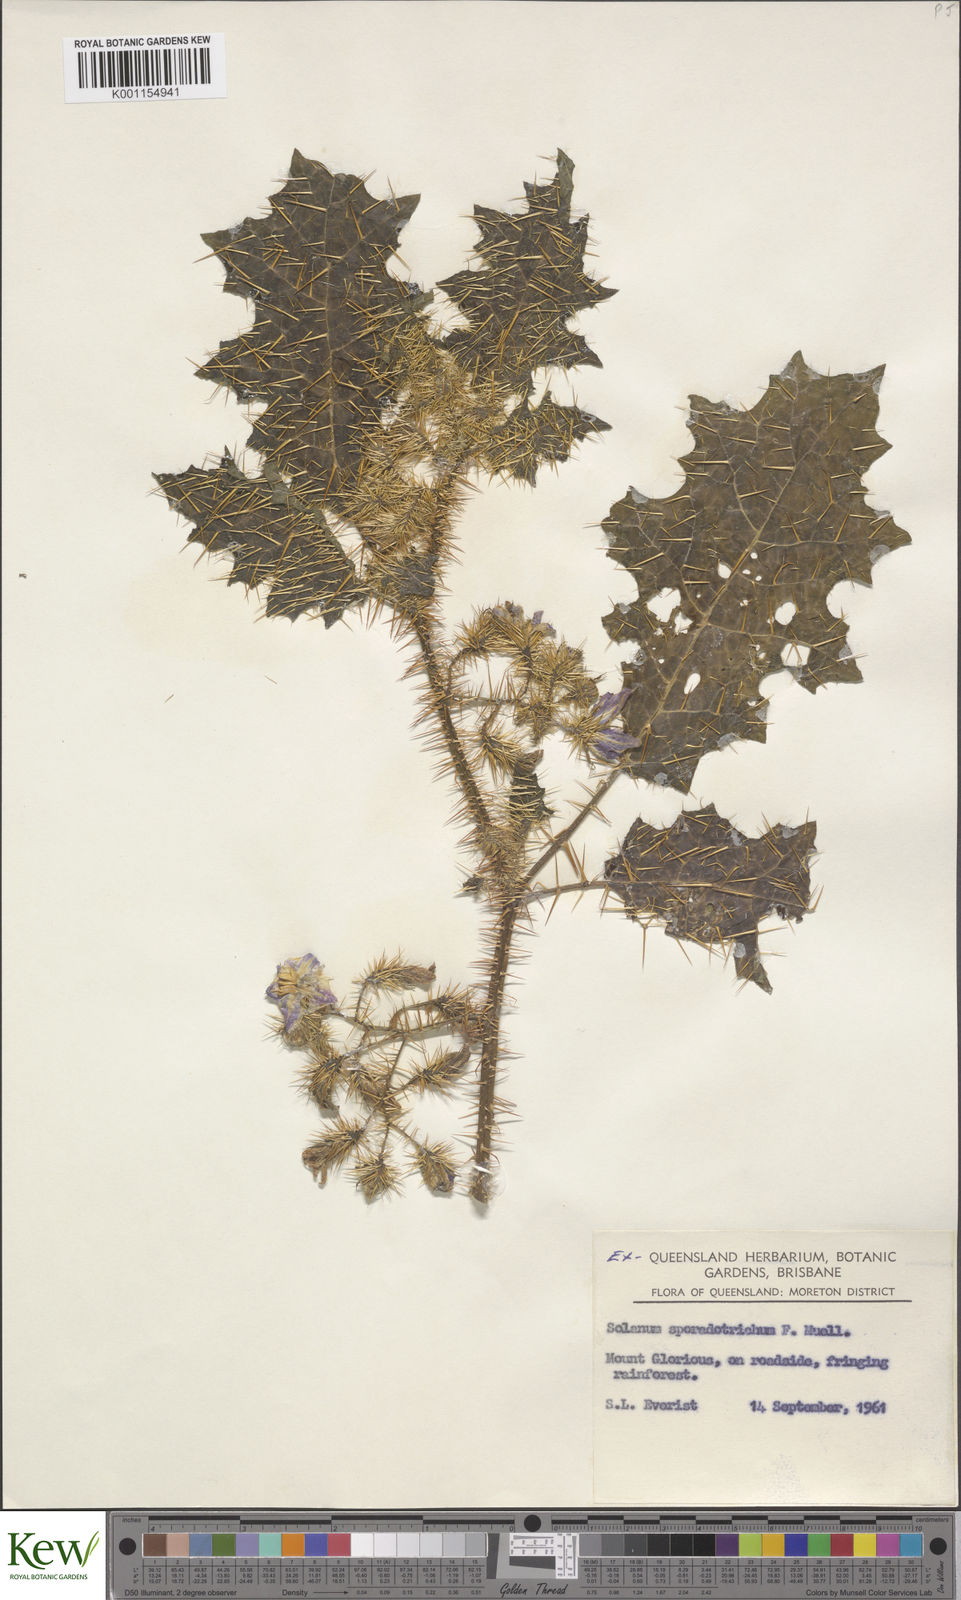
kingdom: Plantae
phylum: Tracheophyta
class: Magnoliopsida
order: Solanales
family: Solanaceae
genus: Solanum
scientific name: Solanum sporadotrichum
